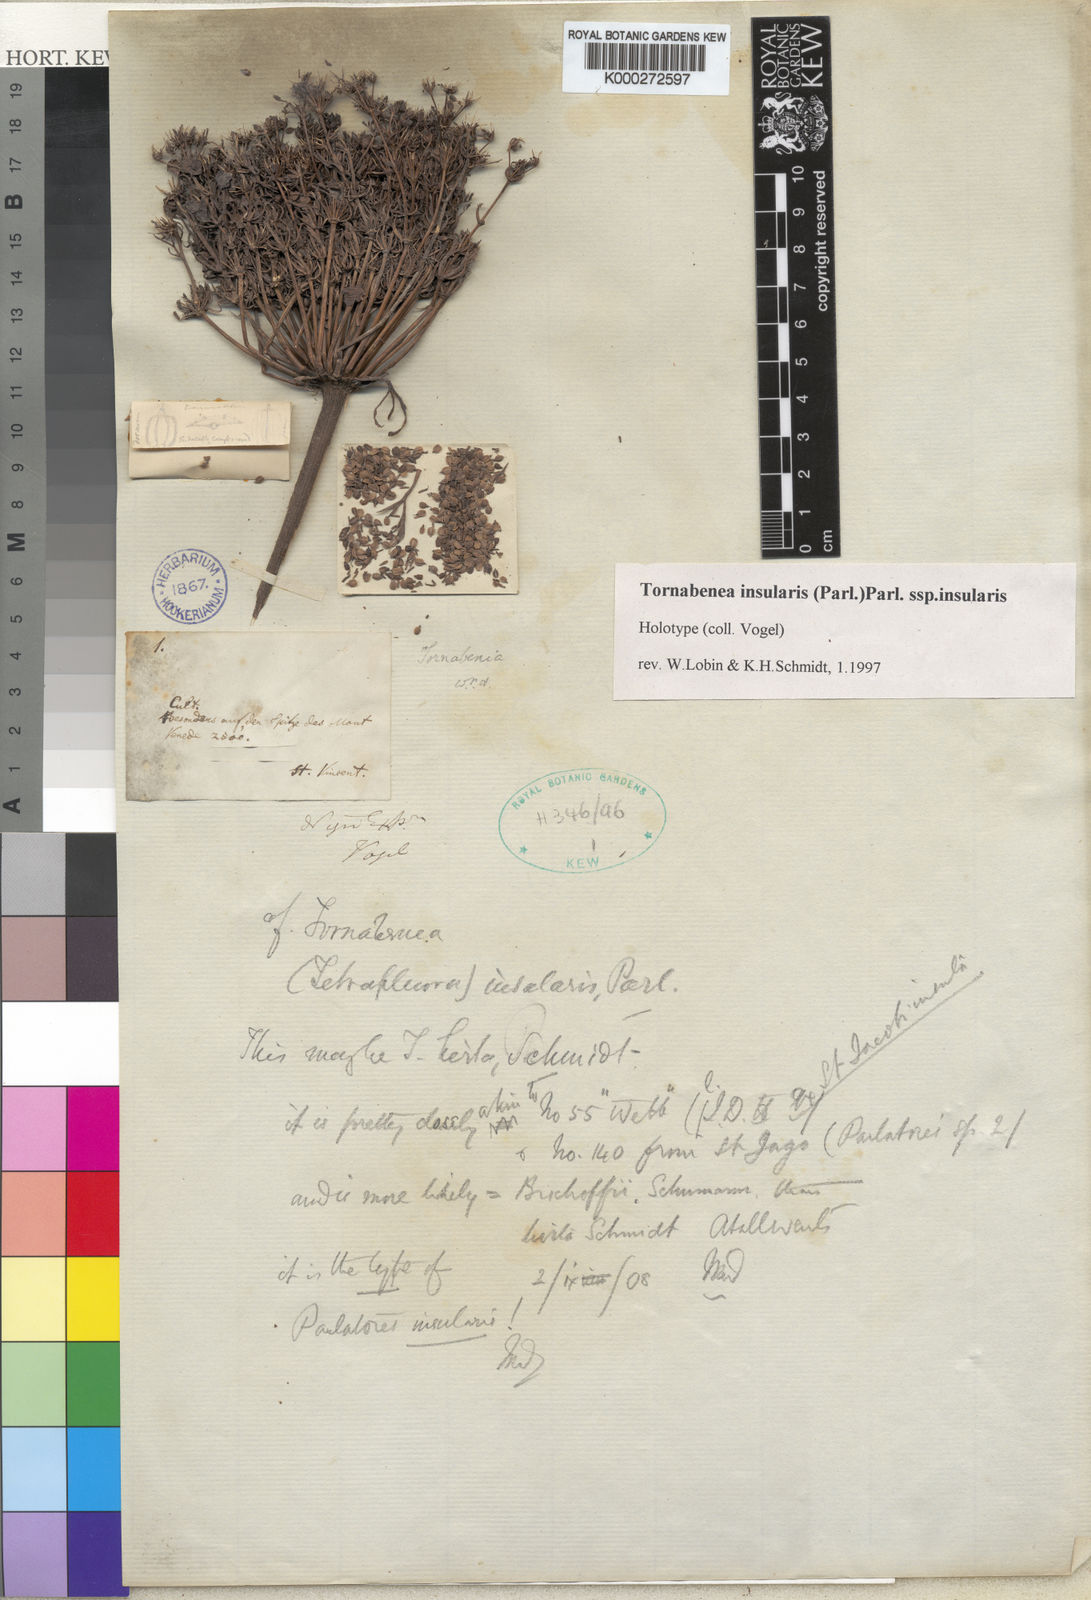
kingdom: Plantae
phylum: Tracheophyta
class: Magnoliopsida
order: Apiales
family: Apiaceae
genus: Daucus
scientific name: Daucus insularis
